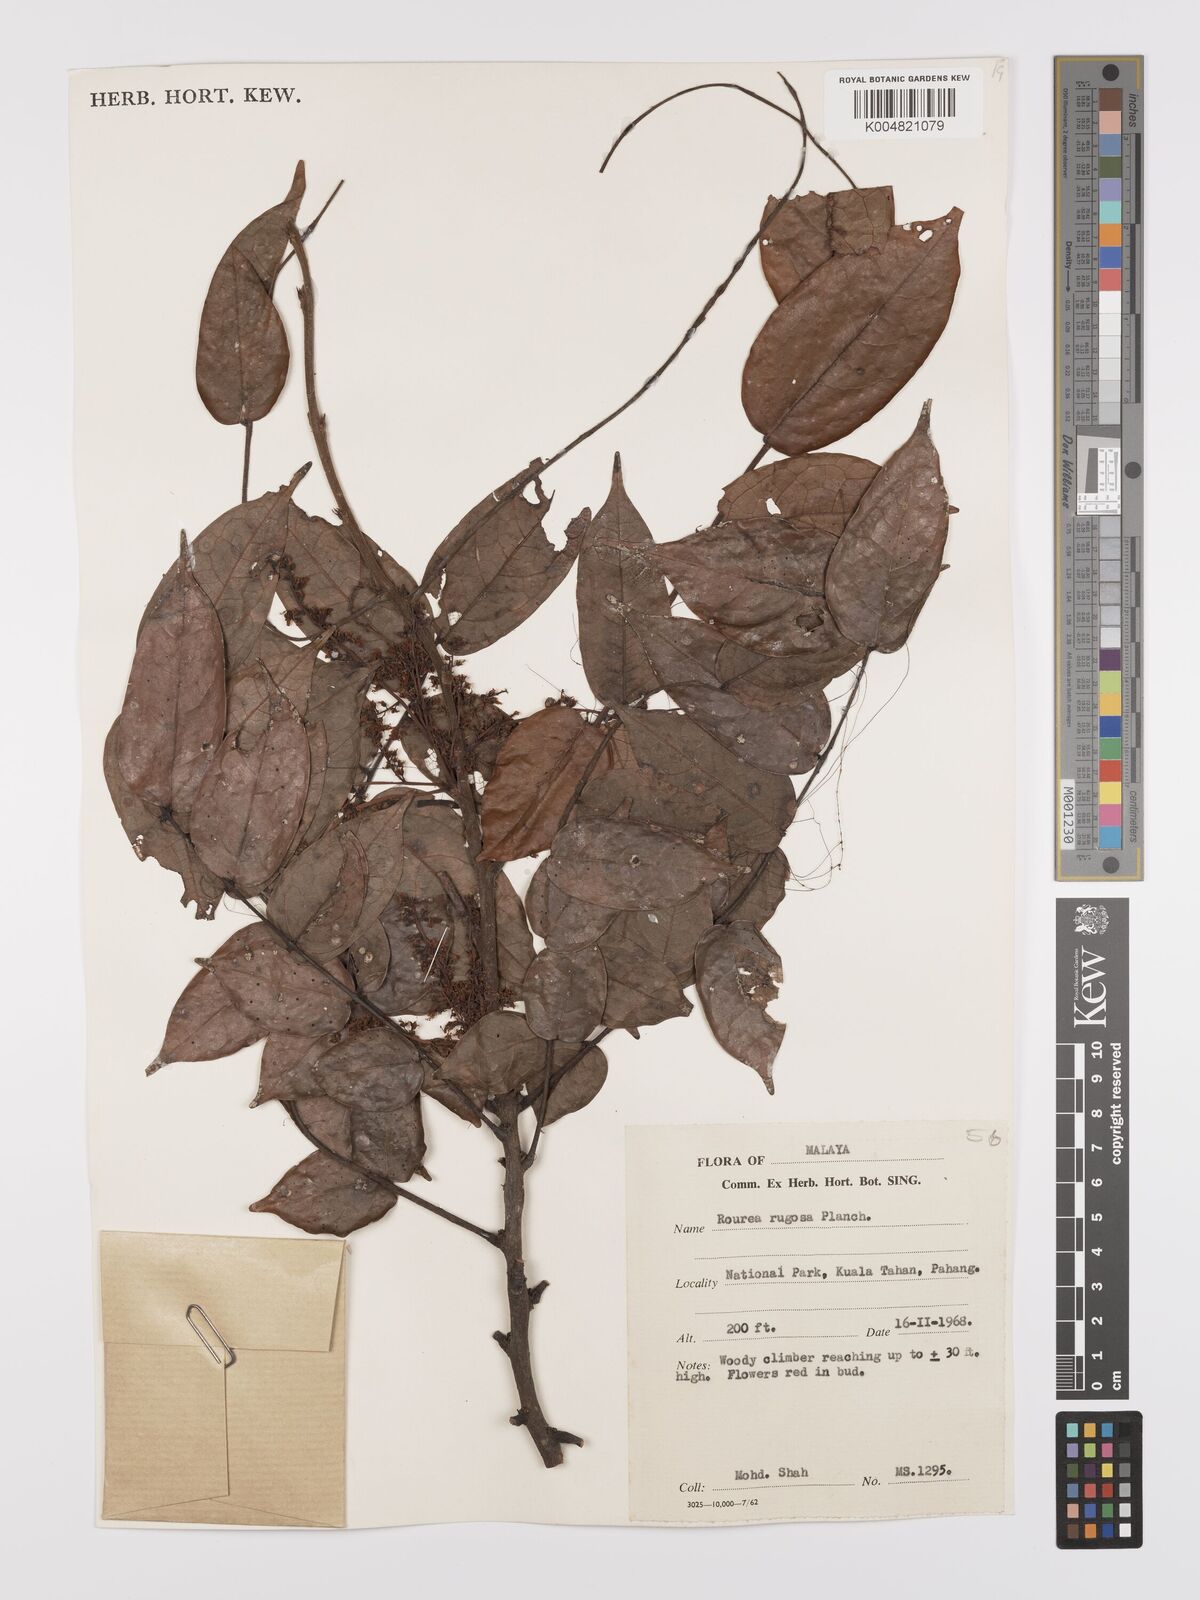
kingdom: Plantae
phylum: Tracheophyta
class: Magnoliopsida
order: Oxalidales
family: Connaraceae
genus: Rourea
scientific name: Rourea rugosa
